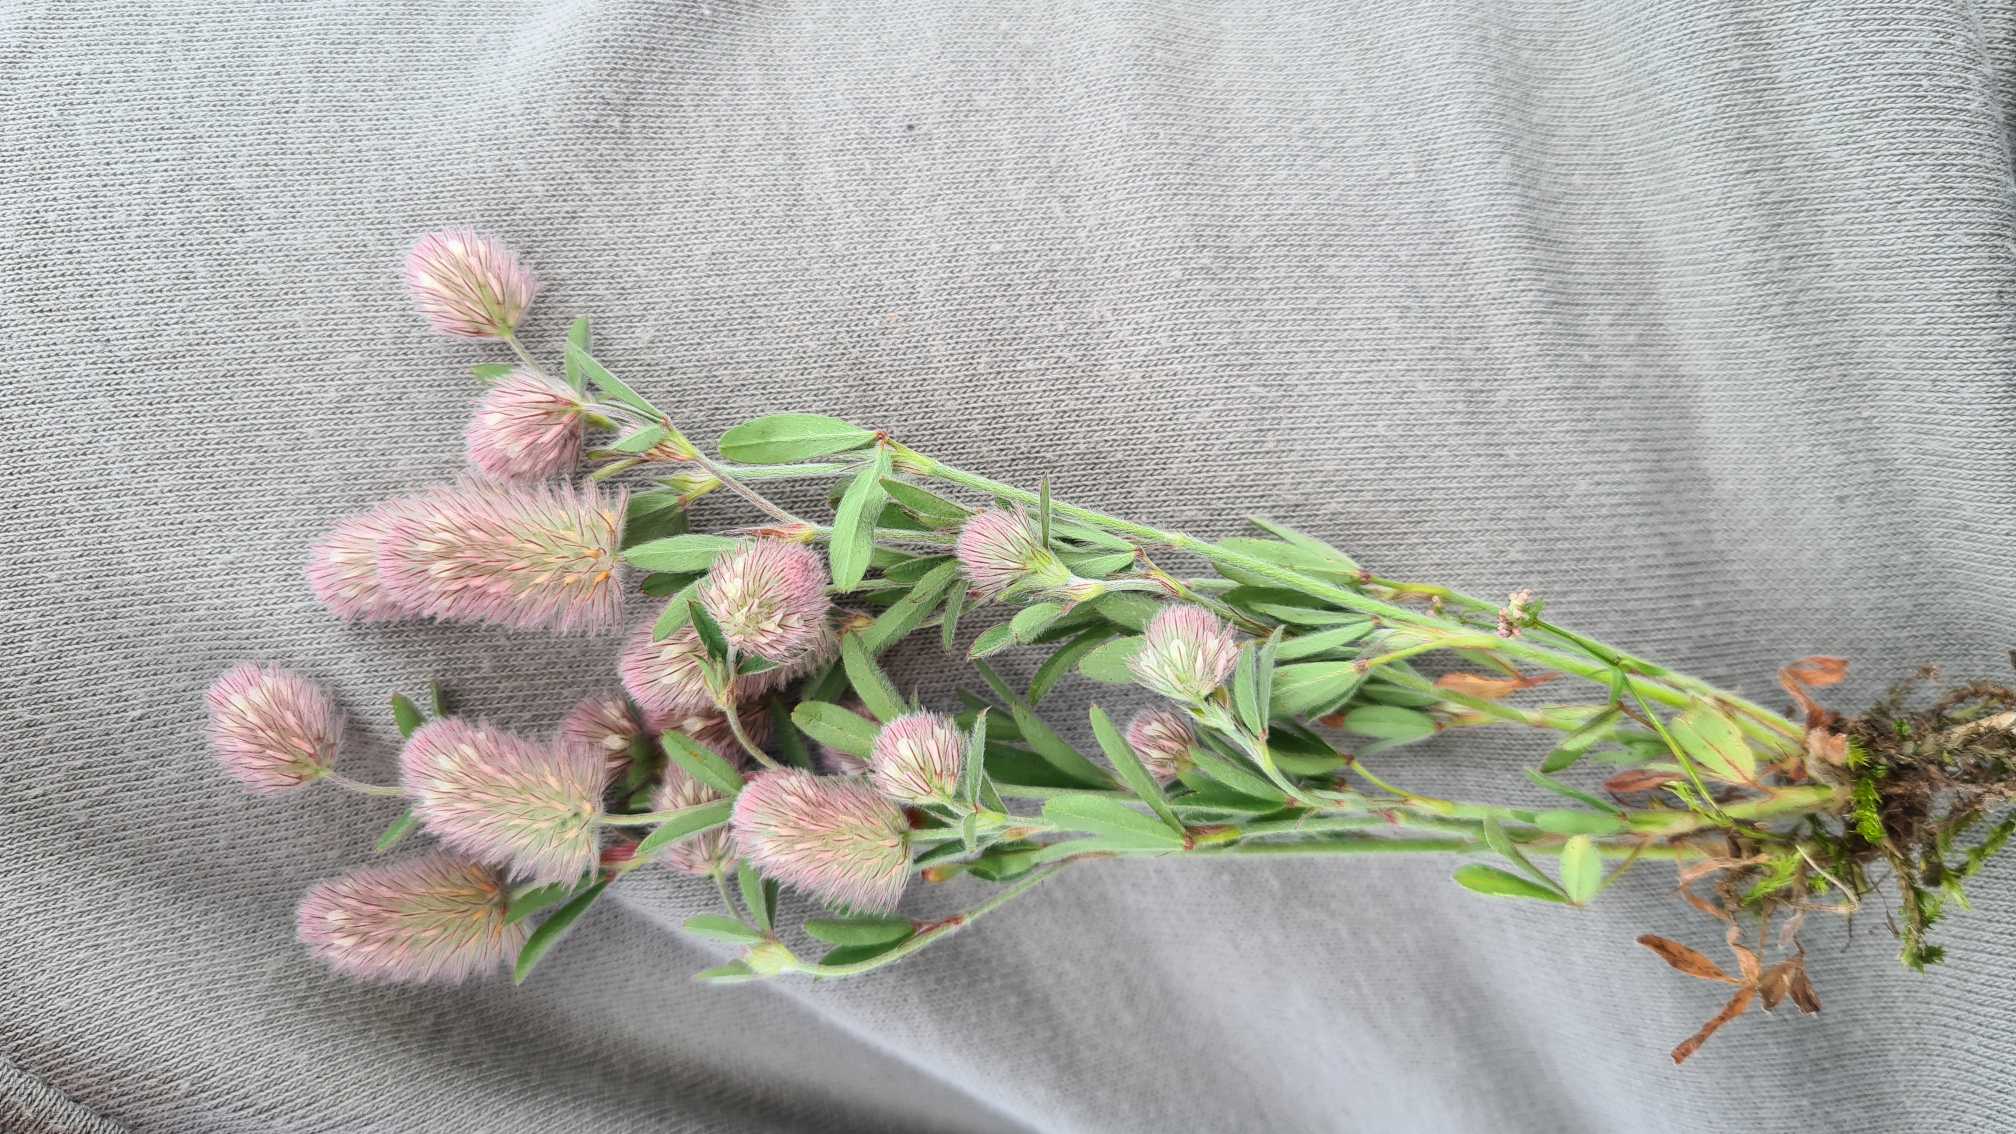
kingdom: Plantae
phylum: Tracheophyta
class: Magnoliopsida
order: Fabales
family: Fabaceae
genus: Trifolium
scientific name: Trifolium arvense
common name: Hare-kløver
